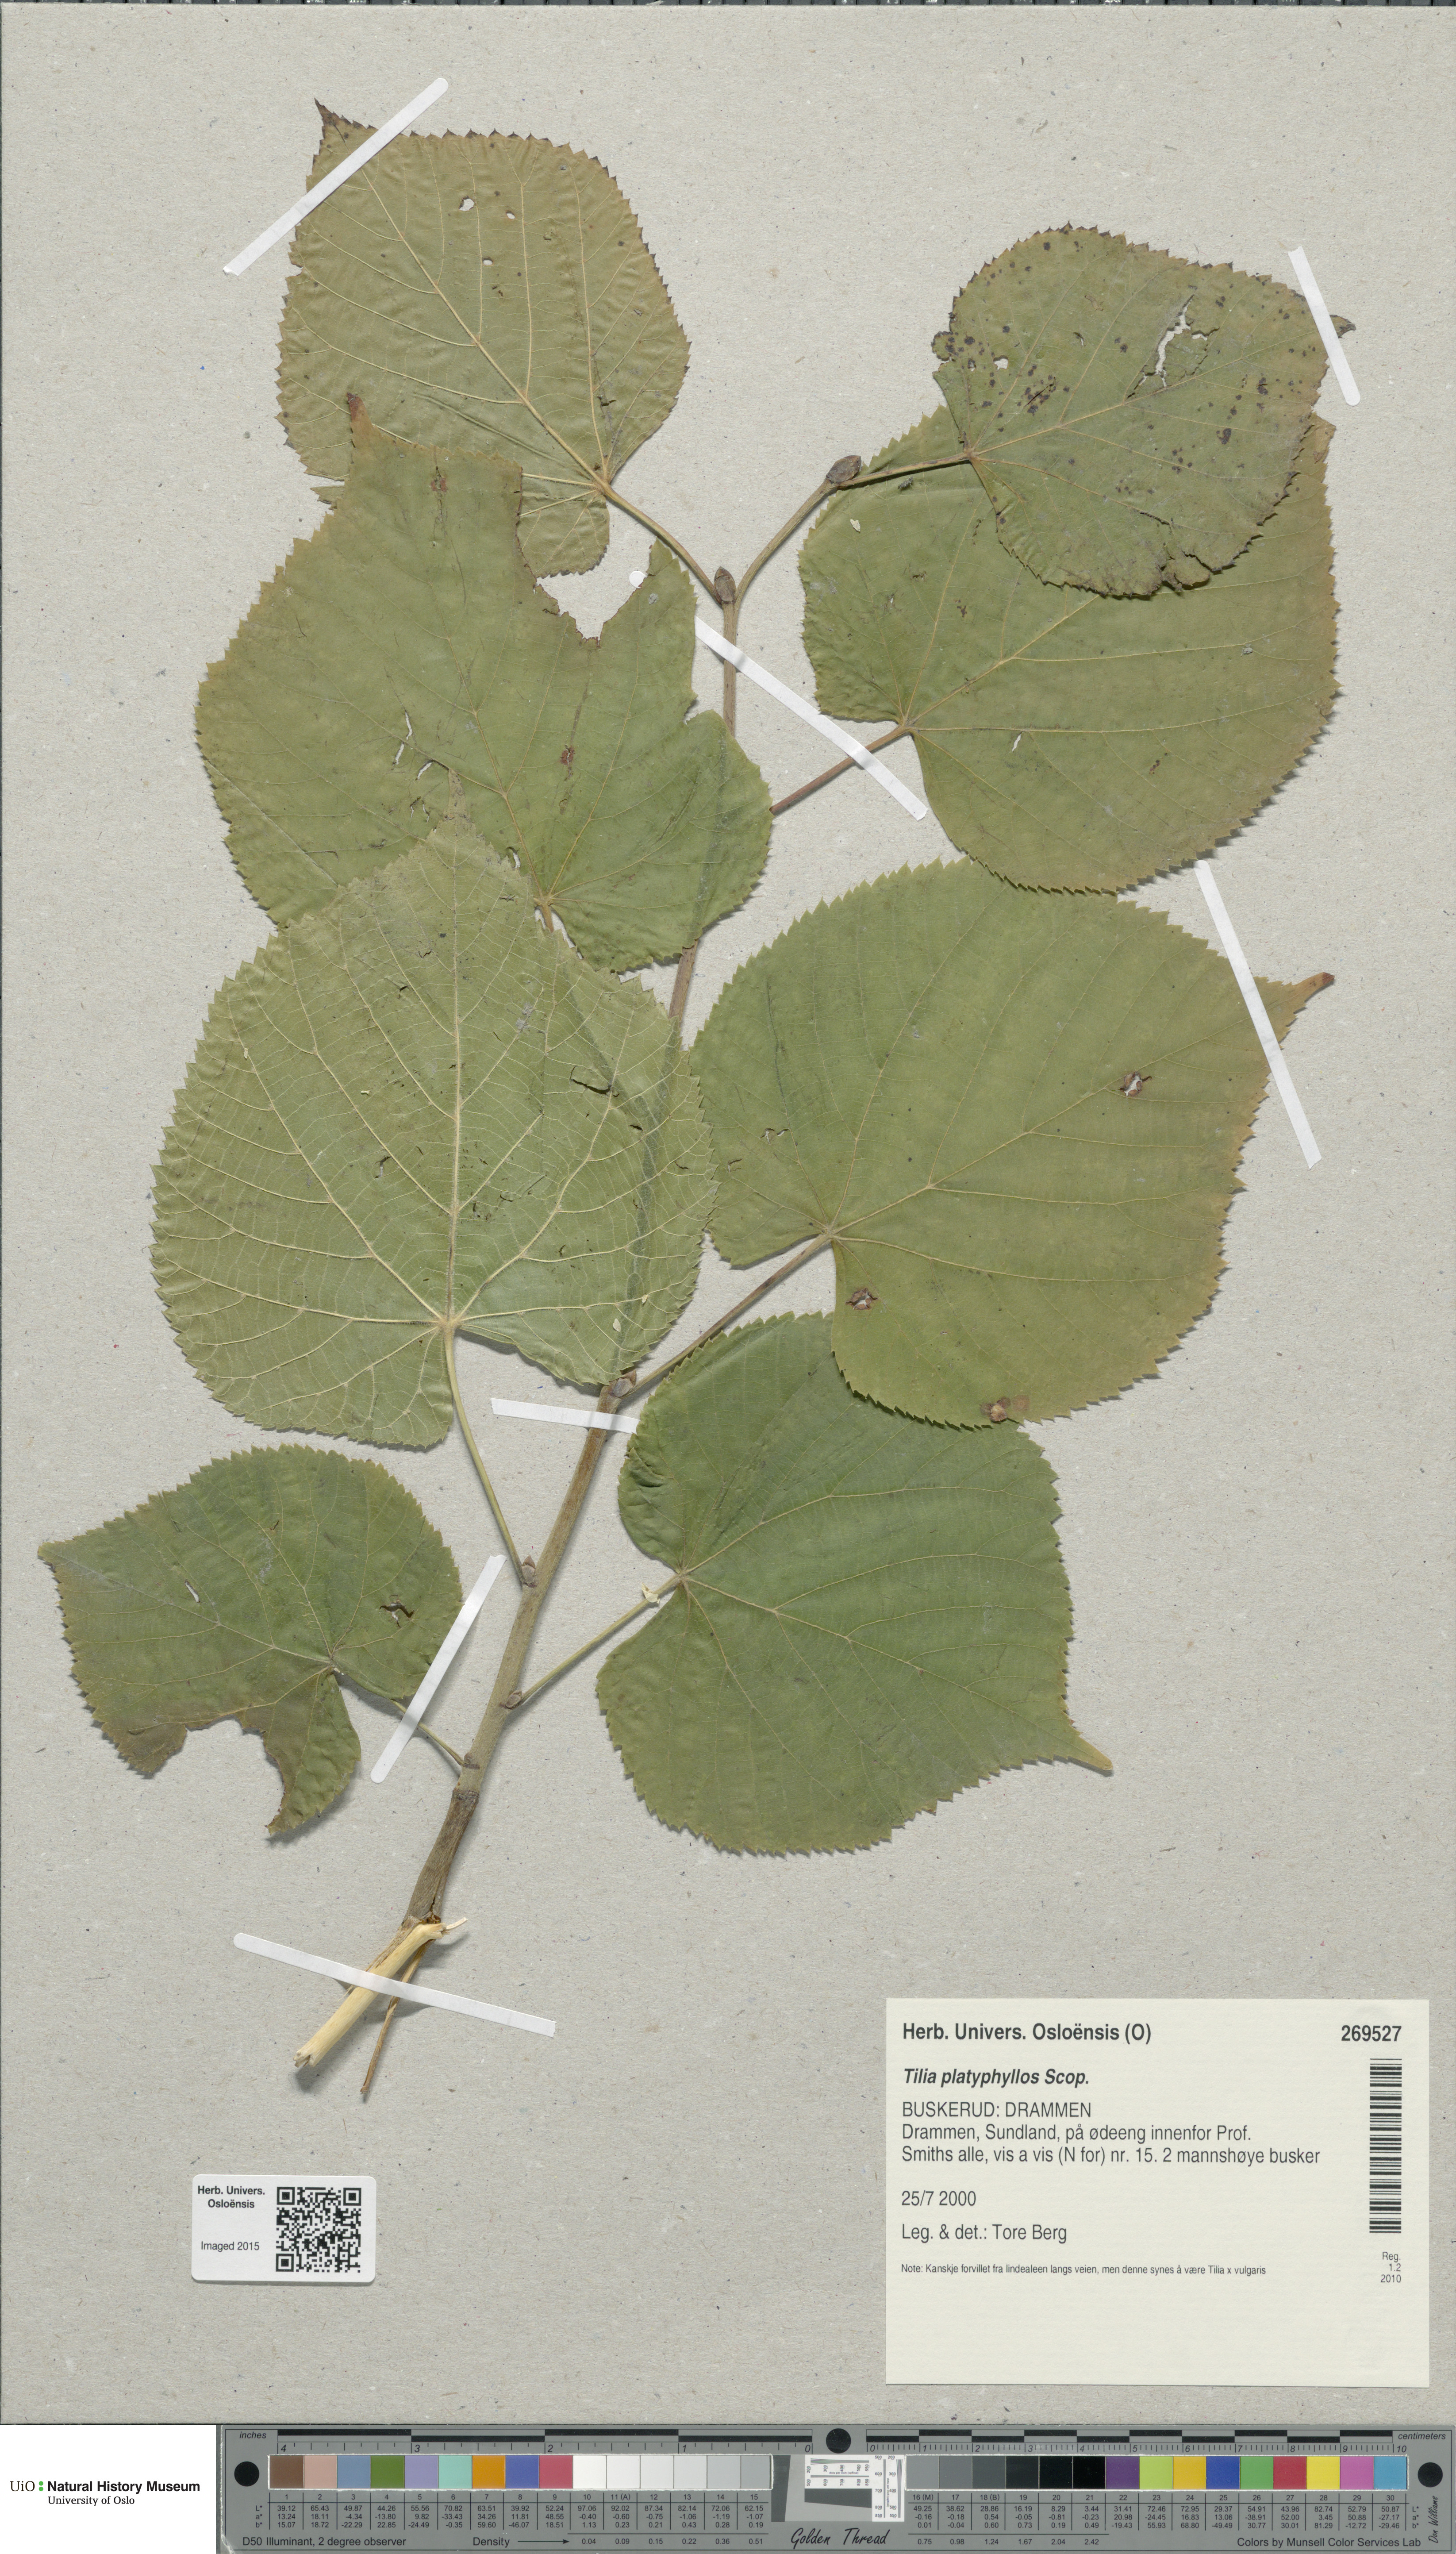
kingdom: Plantae
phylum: Tracheophyta
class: Magnoliopsida
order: Malvales
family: Malvaceae
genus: Tilia
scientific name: Tilia platyphyllos
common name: Large-leaved lime
